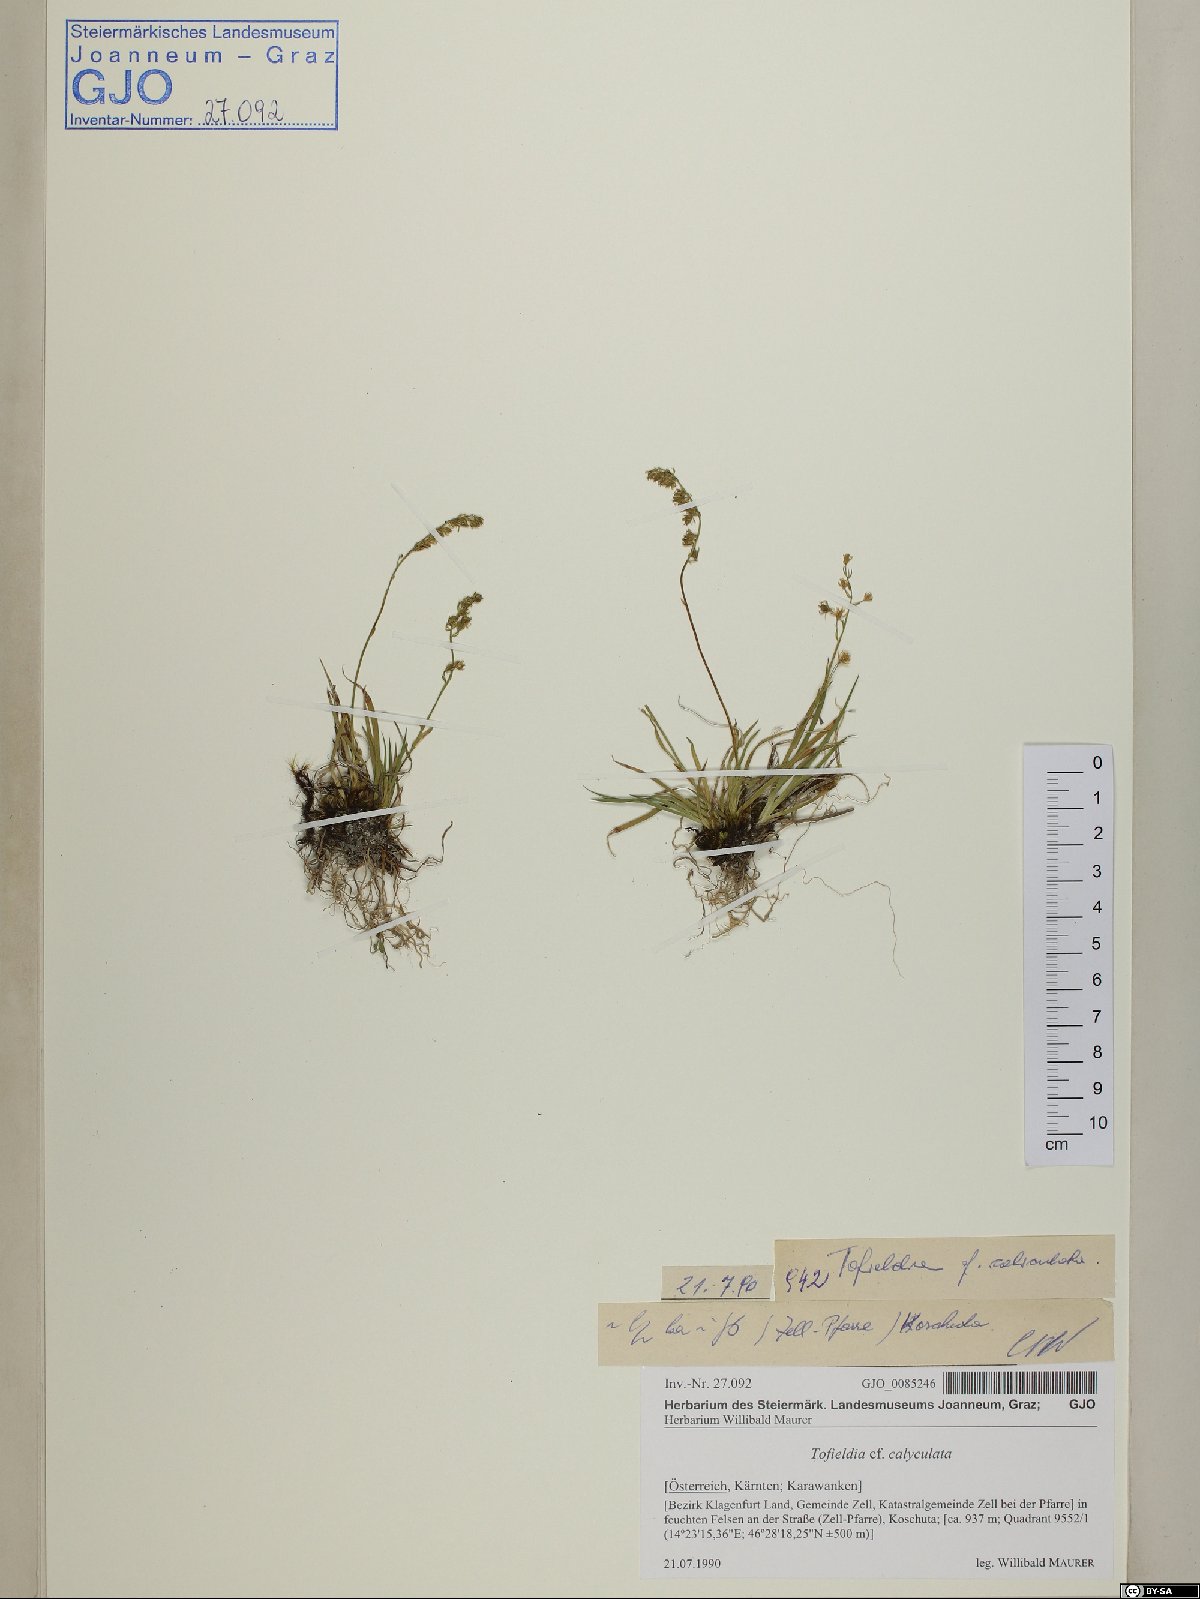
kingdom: Plantae
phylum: Tracheophyta
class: Liliopsida
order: Alismatales
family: Tofieldiaceae
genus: Tofieldia
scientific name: Tofieldia calyculata
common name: German-asphodel
